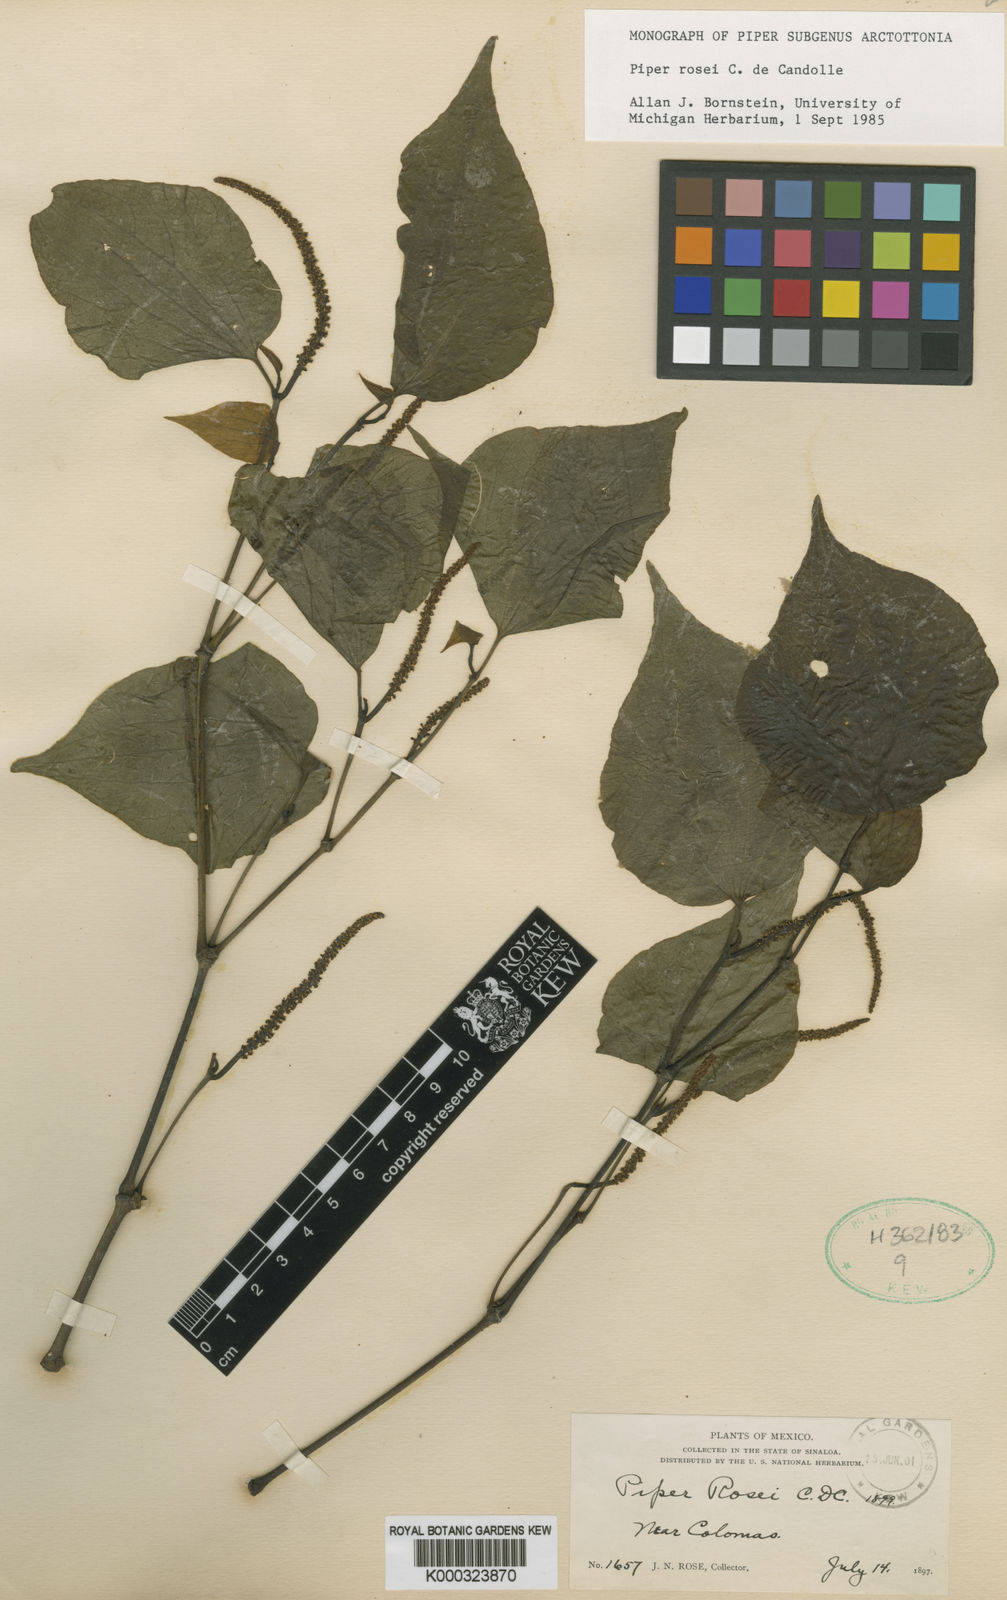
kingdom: Plantae
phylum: Tracheophyta
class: Magnoliopsida
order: Piperales
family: Piperaceae
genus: Piper
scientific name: Piper rosei
